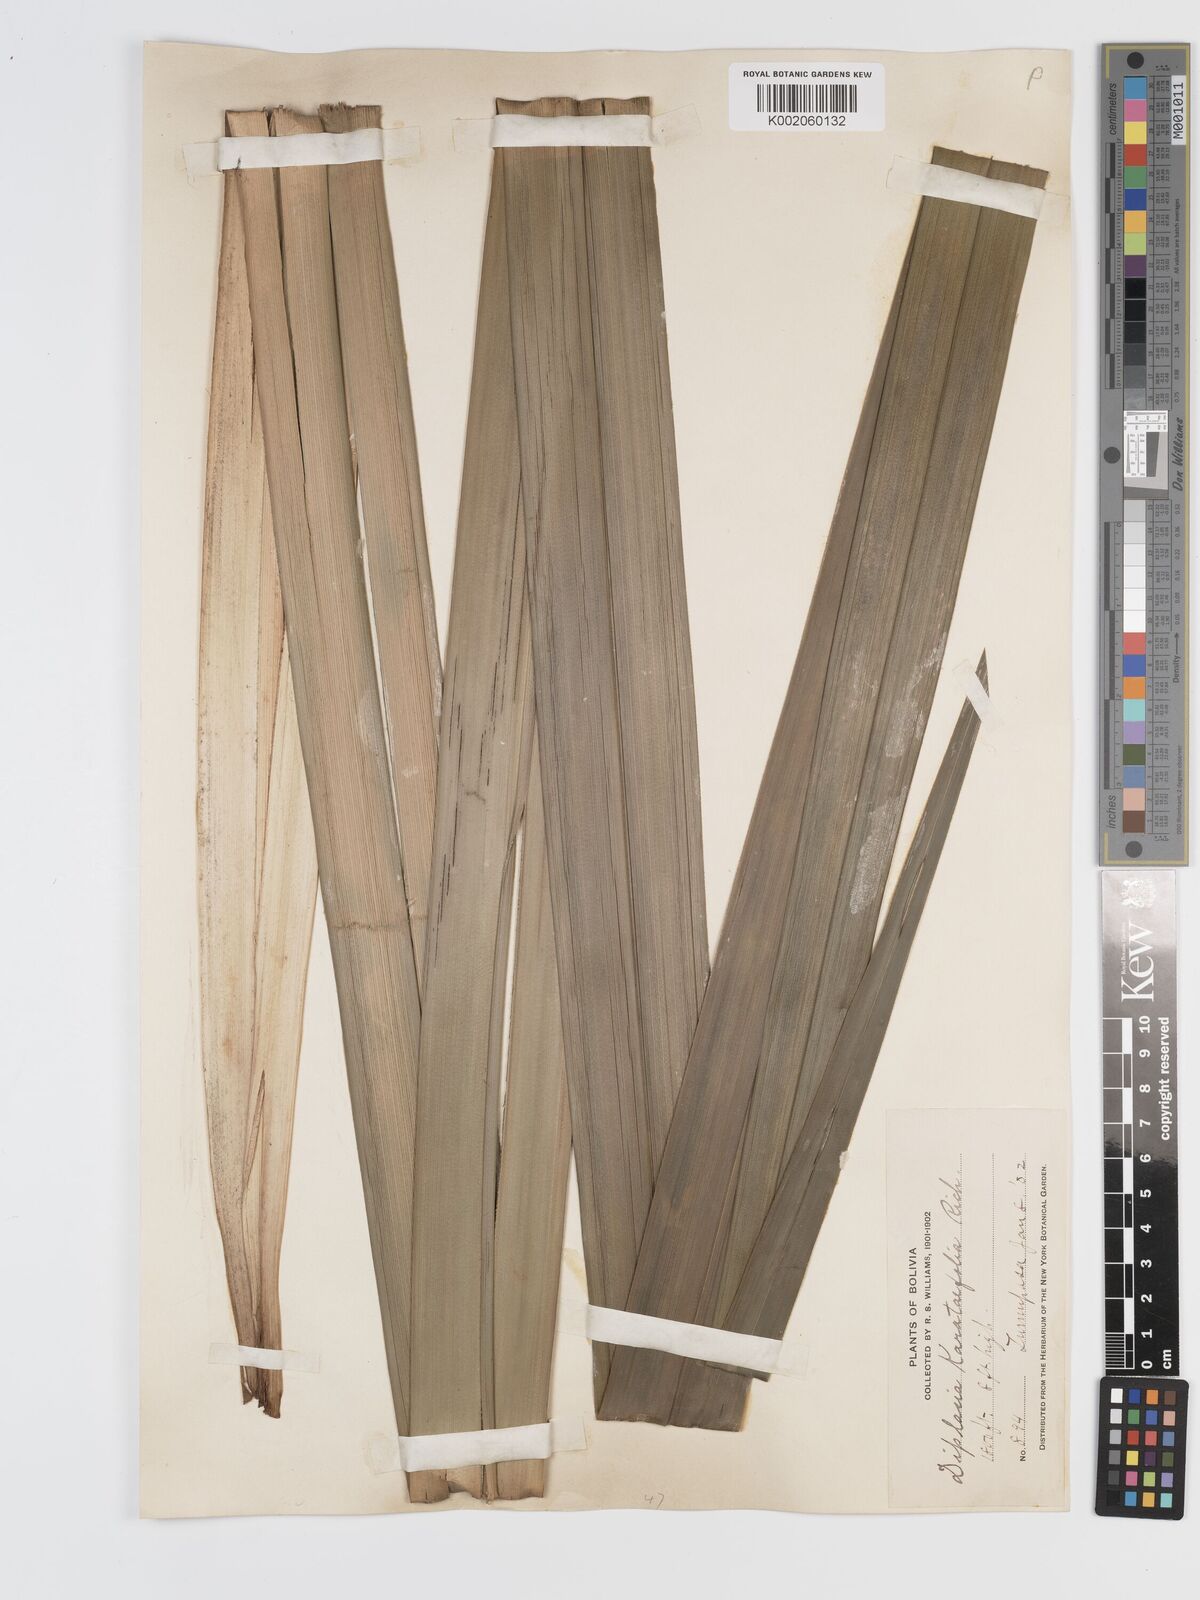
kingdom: Plantae
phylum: Tracheophyta
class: Liliopsida
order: Poales
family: Cyperaceae
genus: Diplasia
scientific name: Diplasia karatifolia
